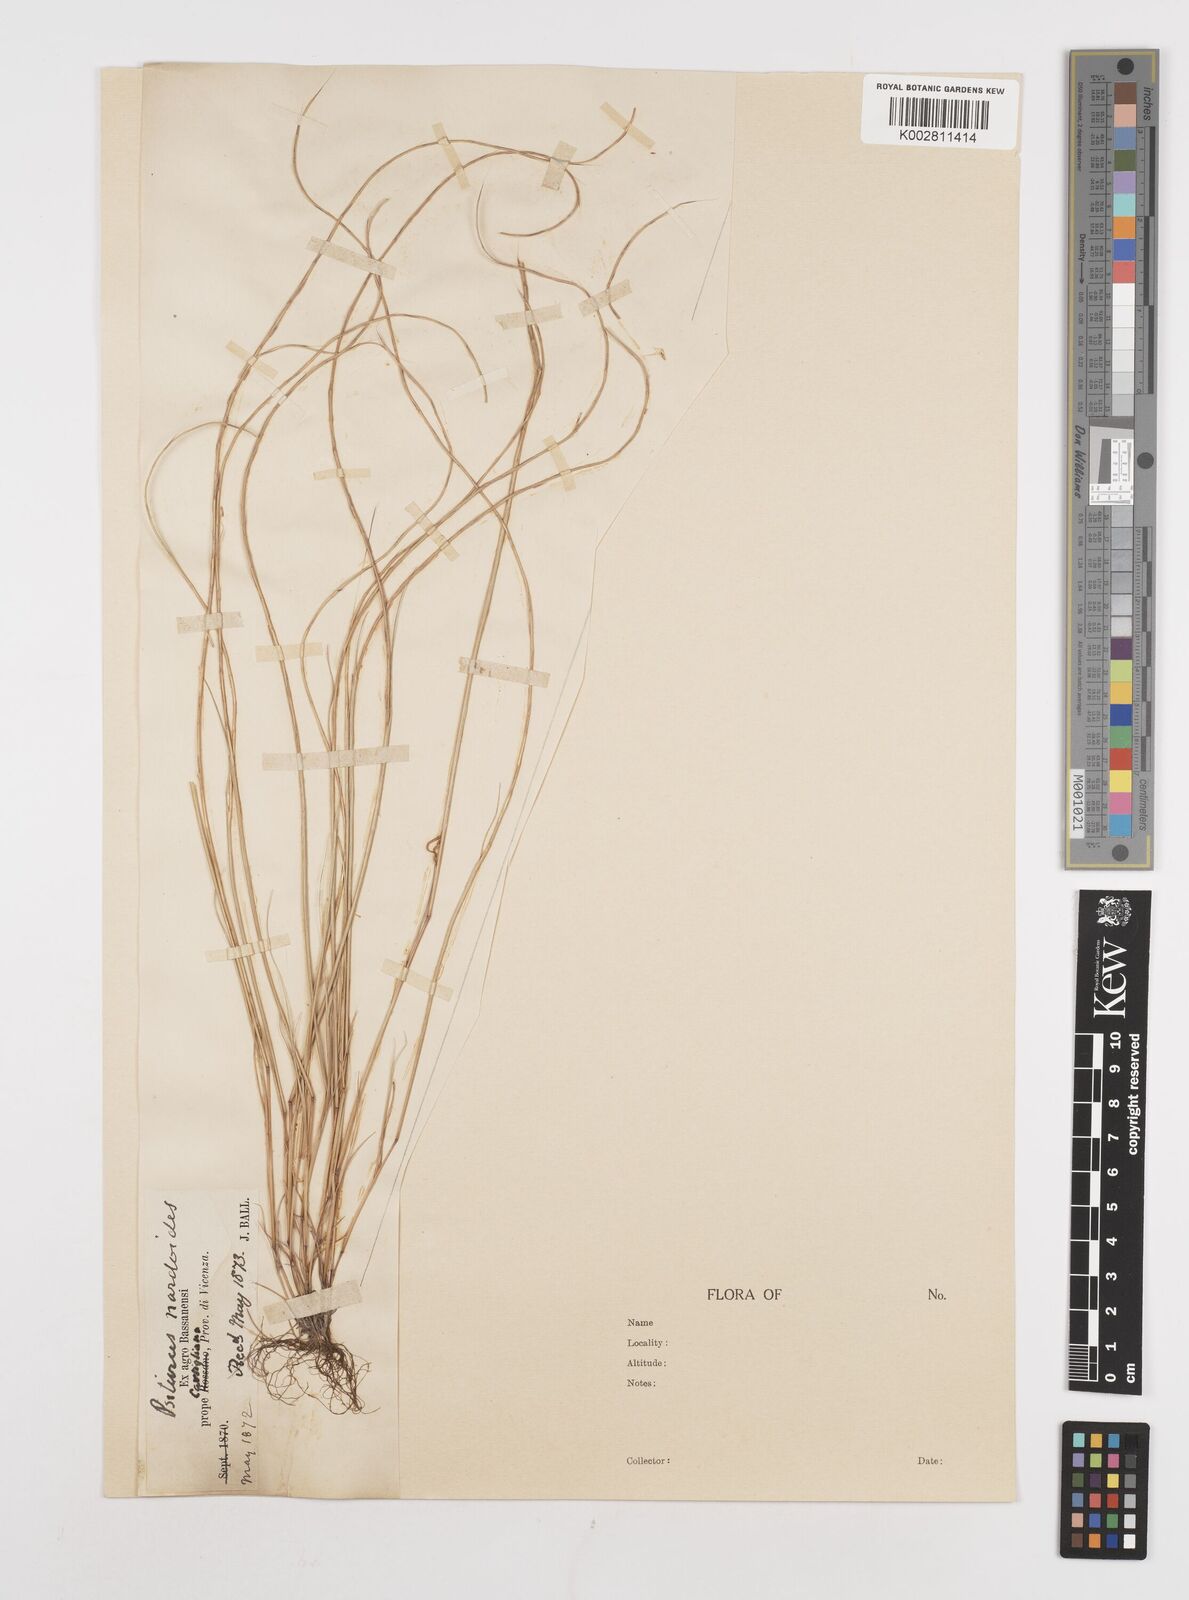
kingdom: Plantae
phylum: Tracheophyta
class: Liliopsida
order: Poales
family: Poaceae
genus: Festuca
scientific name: Festuca incurva
